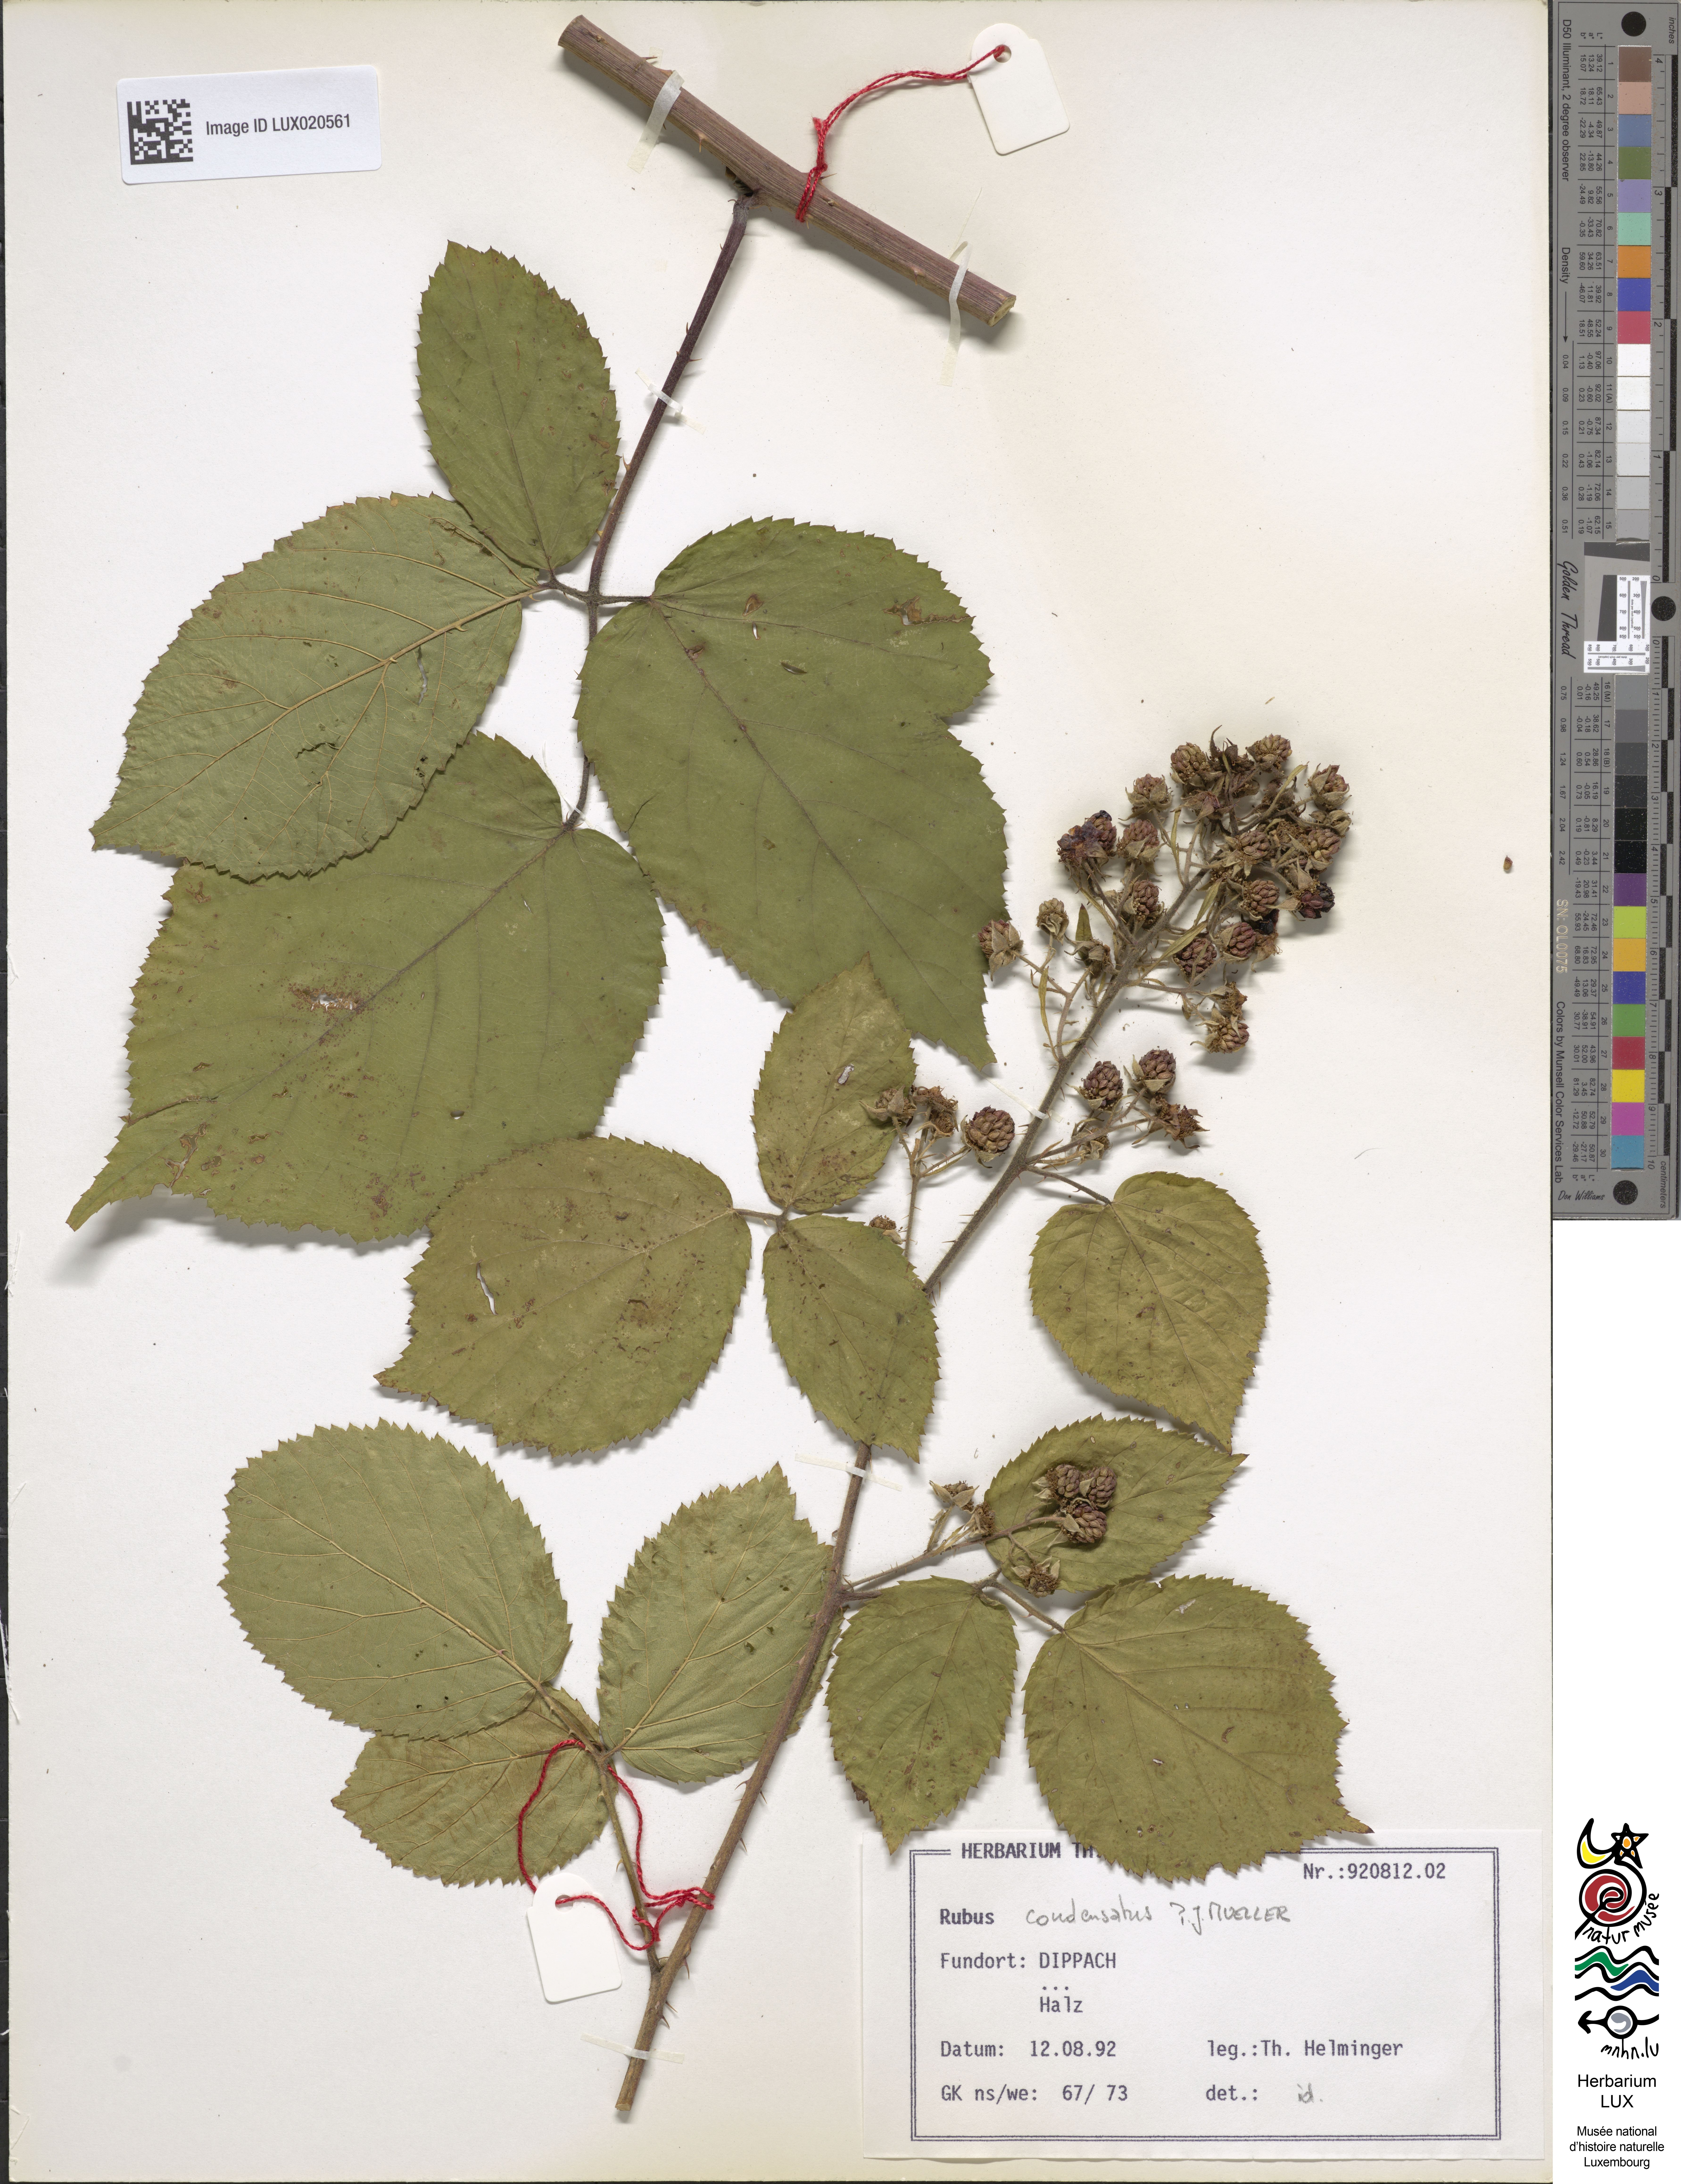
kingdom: Plantae
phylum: Tracheophyta
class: Magnoliopsida
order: Rosales
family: Rosaceae
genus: Rubus
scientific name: Rubus condensatus
